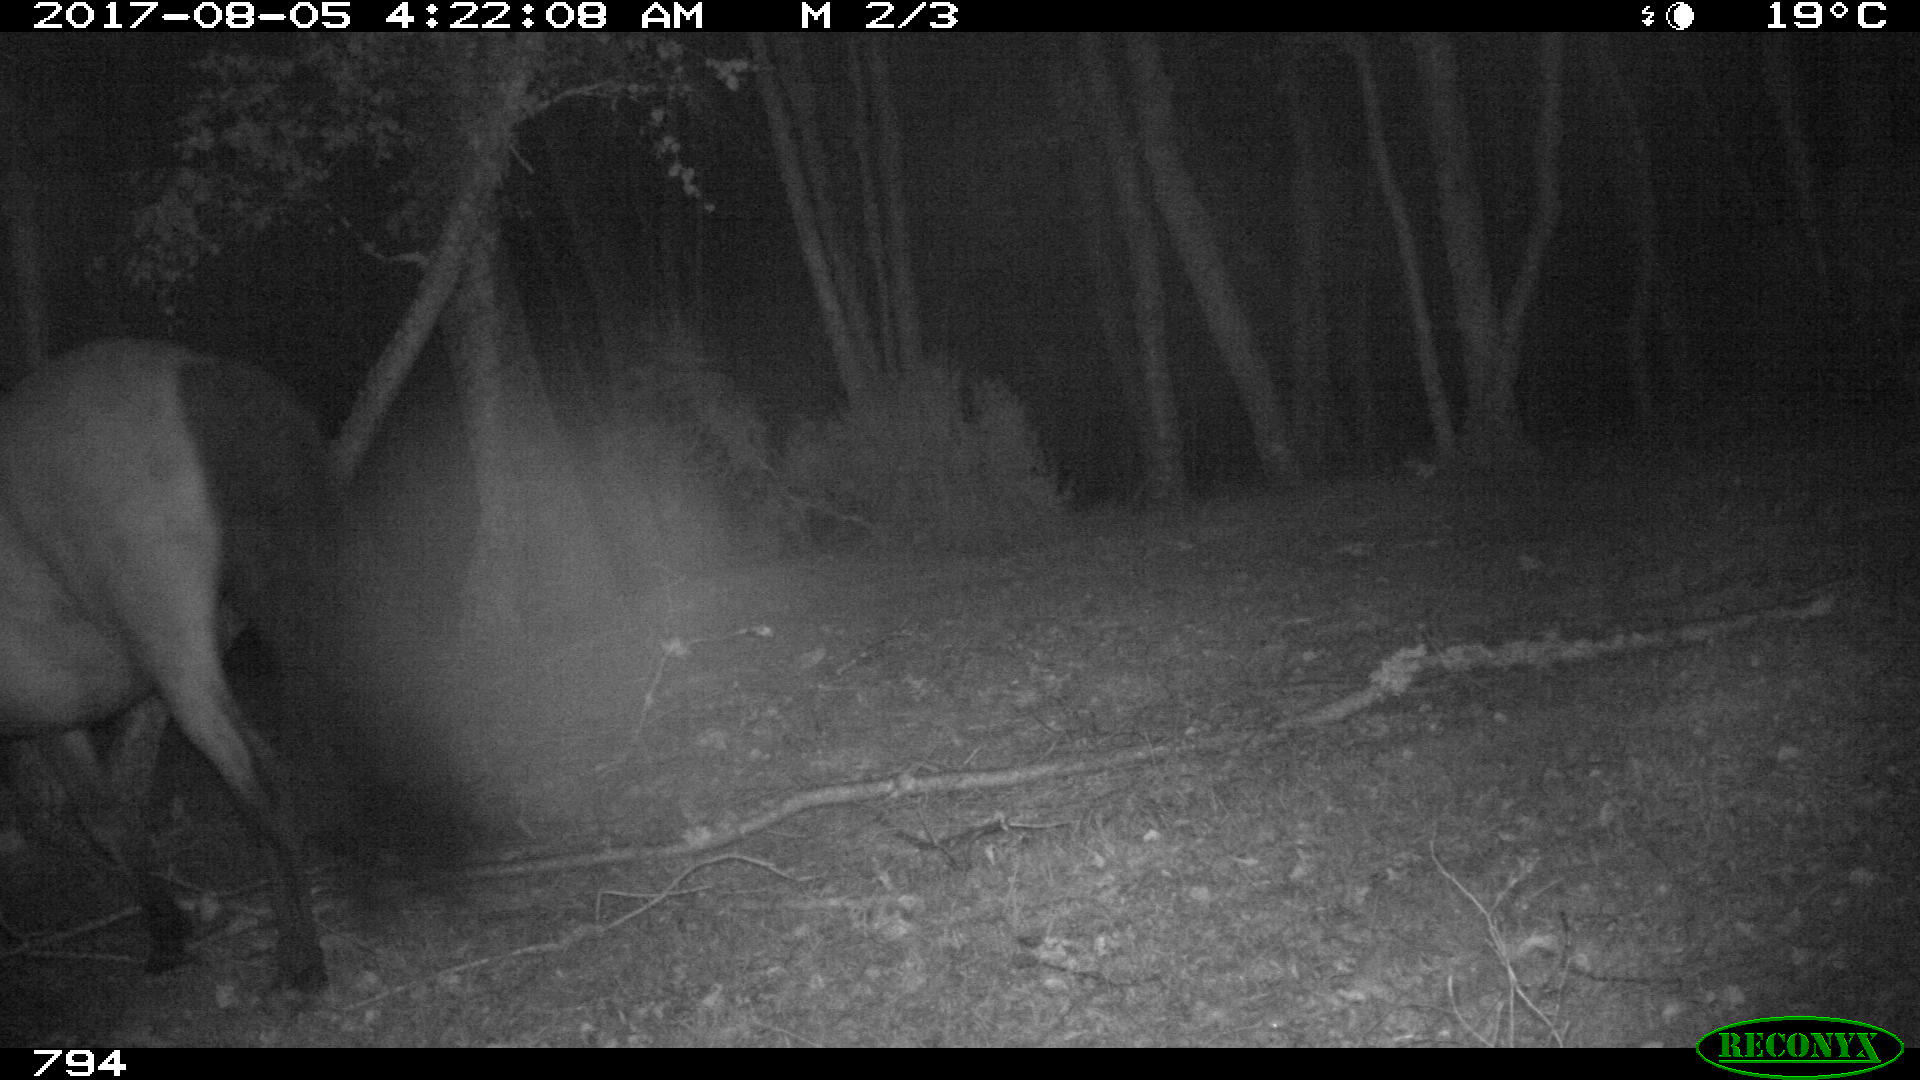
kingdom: Animalia
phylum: Chordata
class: Mammalia
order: Perissodactyla
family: Equidae
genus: Equus
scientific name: Equus caballus
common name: Horse
